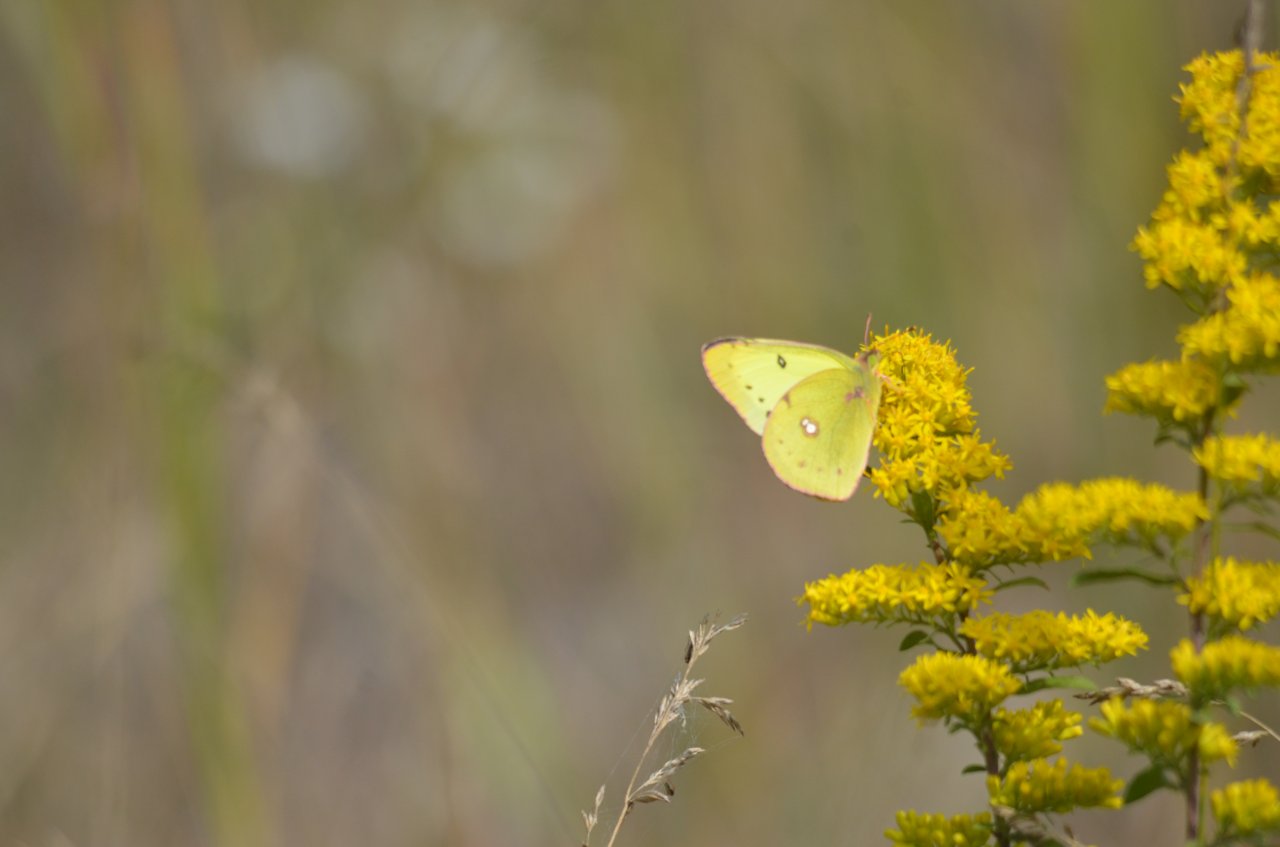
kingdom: Animalia
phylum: Arthropoda
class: Insecta
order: Lepidoptera
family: Pieridae
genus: Colias
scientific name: Colias philodice
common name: Clouded Sulphur
